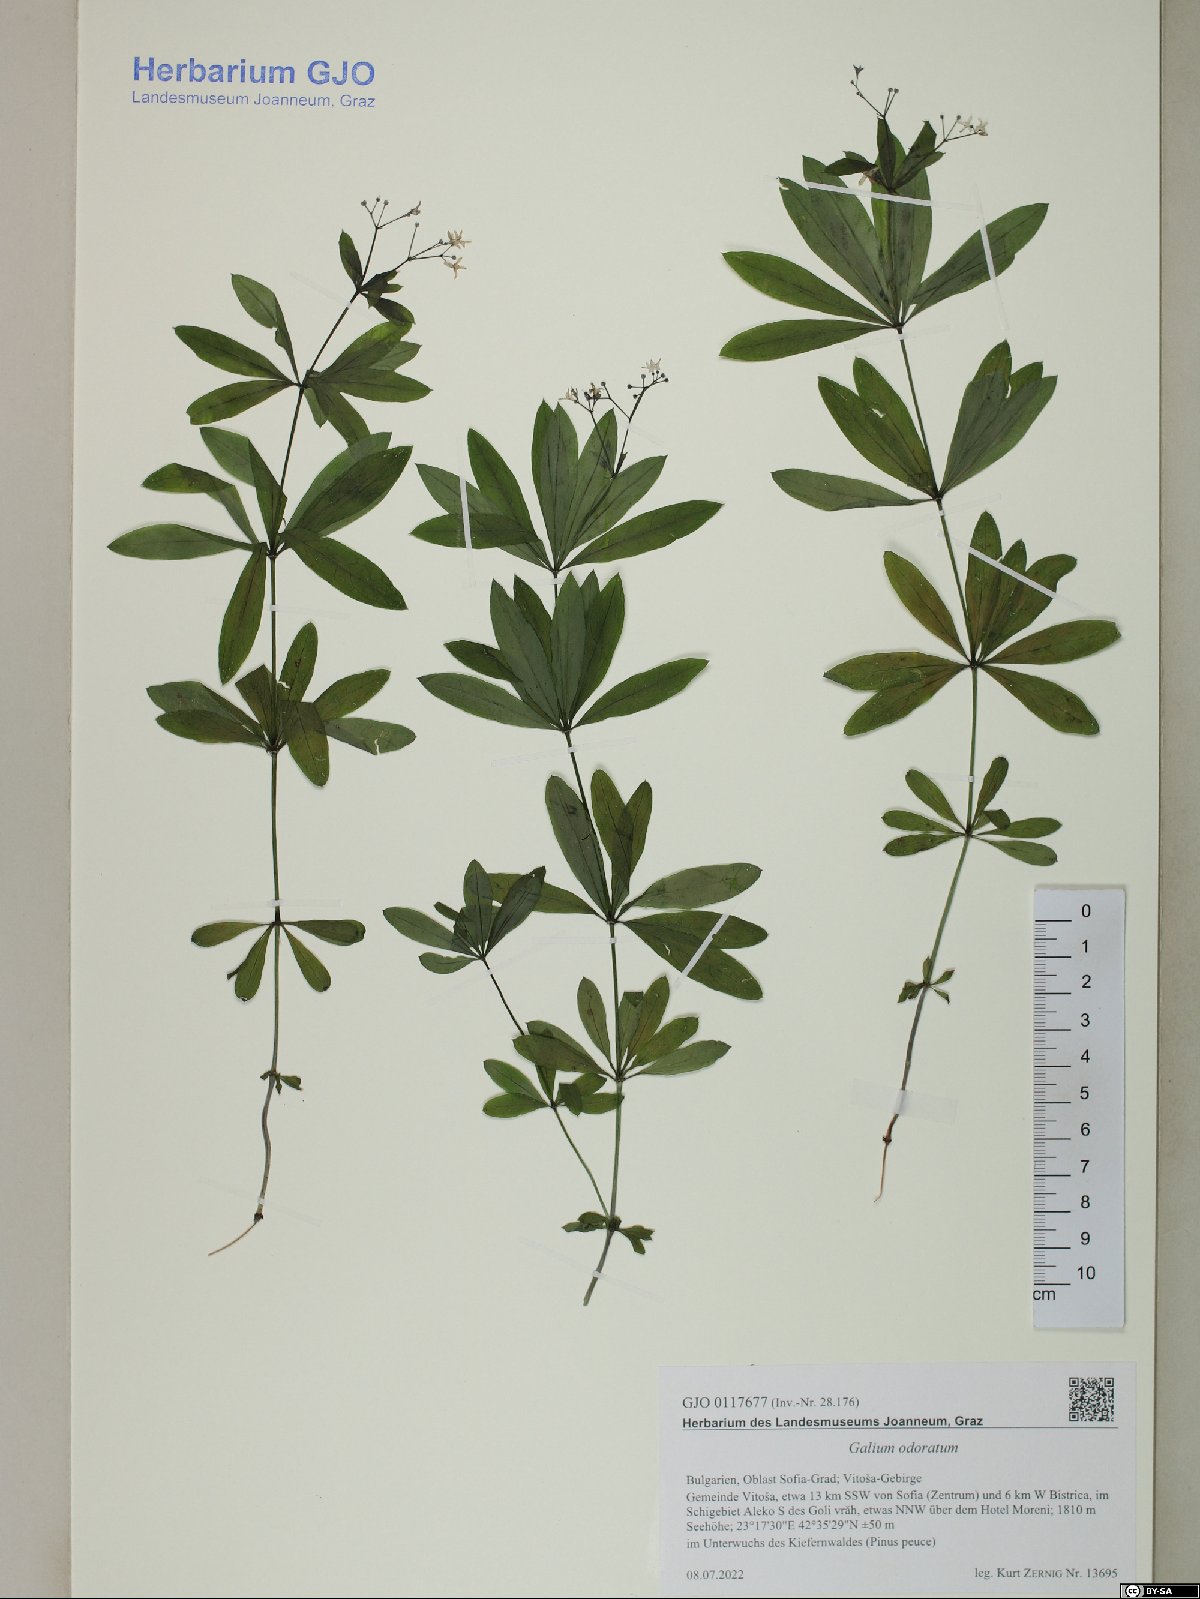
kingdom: Plantae
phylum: Tracheophyta
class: Magnoliopsida
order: Gentianales
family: Rubiaceae
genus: Galium
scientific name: Galium odoratum
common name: Sweet woodruff
